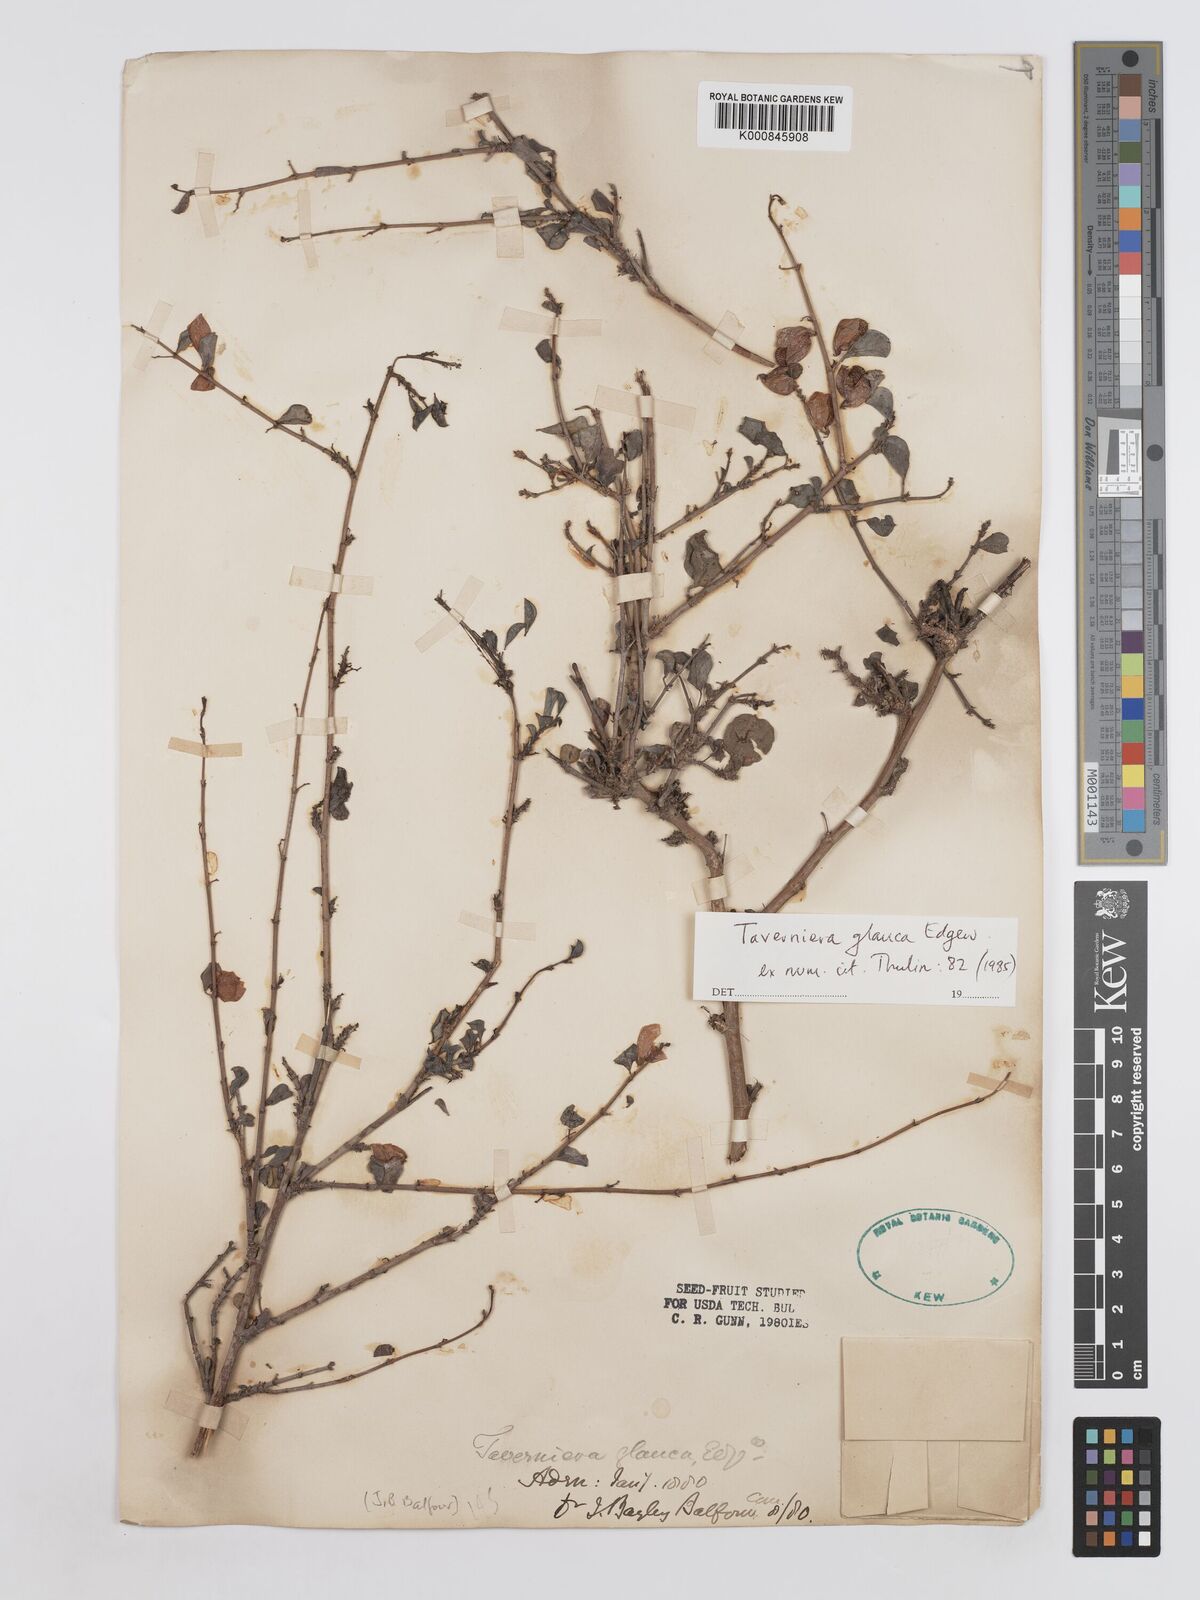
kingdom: Plantae
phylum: Tracheophyta
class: Magnoliopsida
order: Fabales
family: Fabaceae
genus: Taverniera
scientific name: Taverniera glauca
